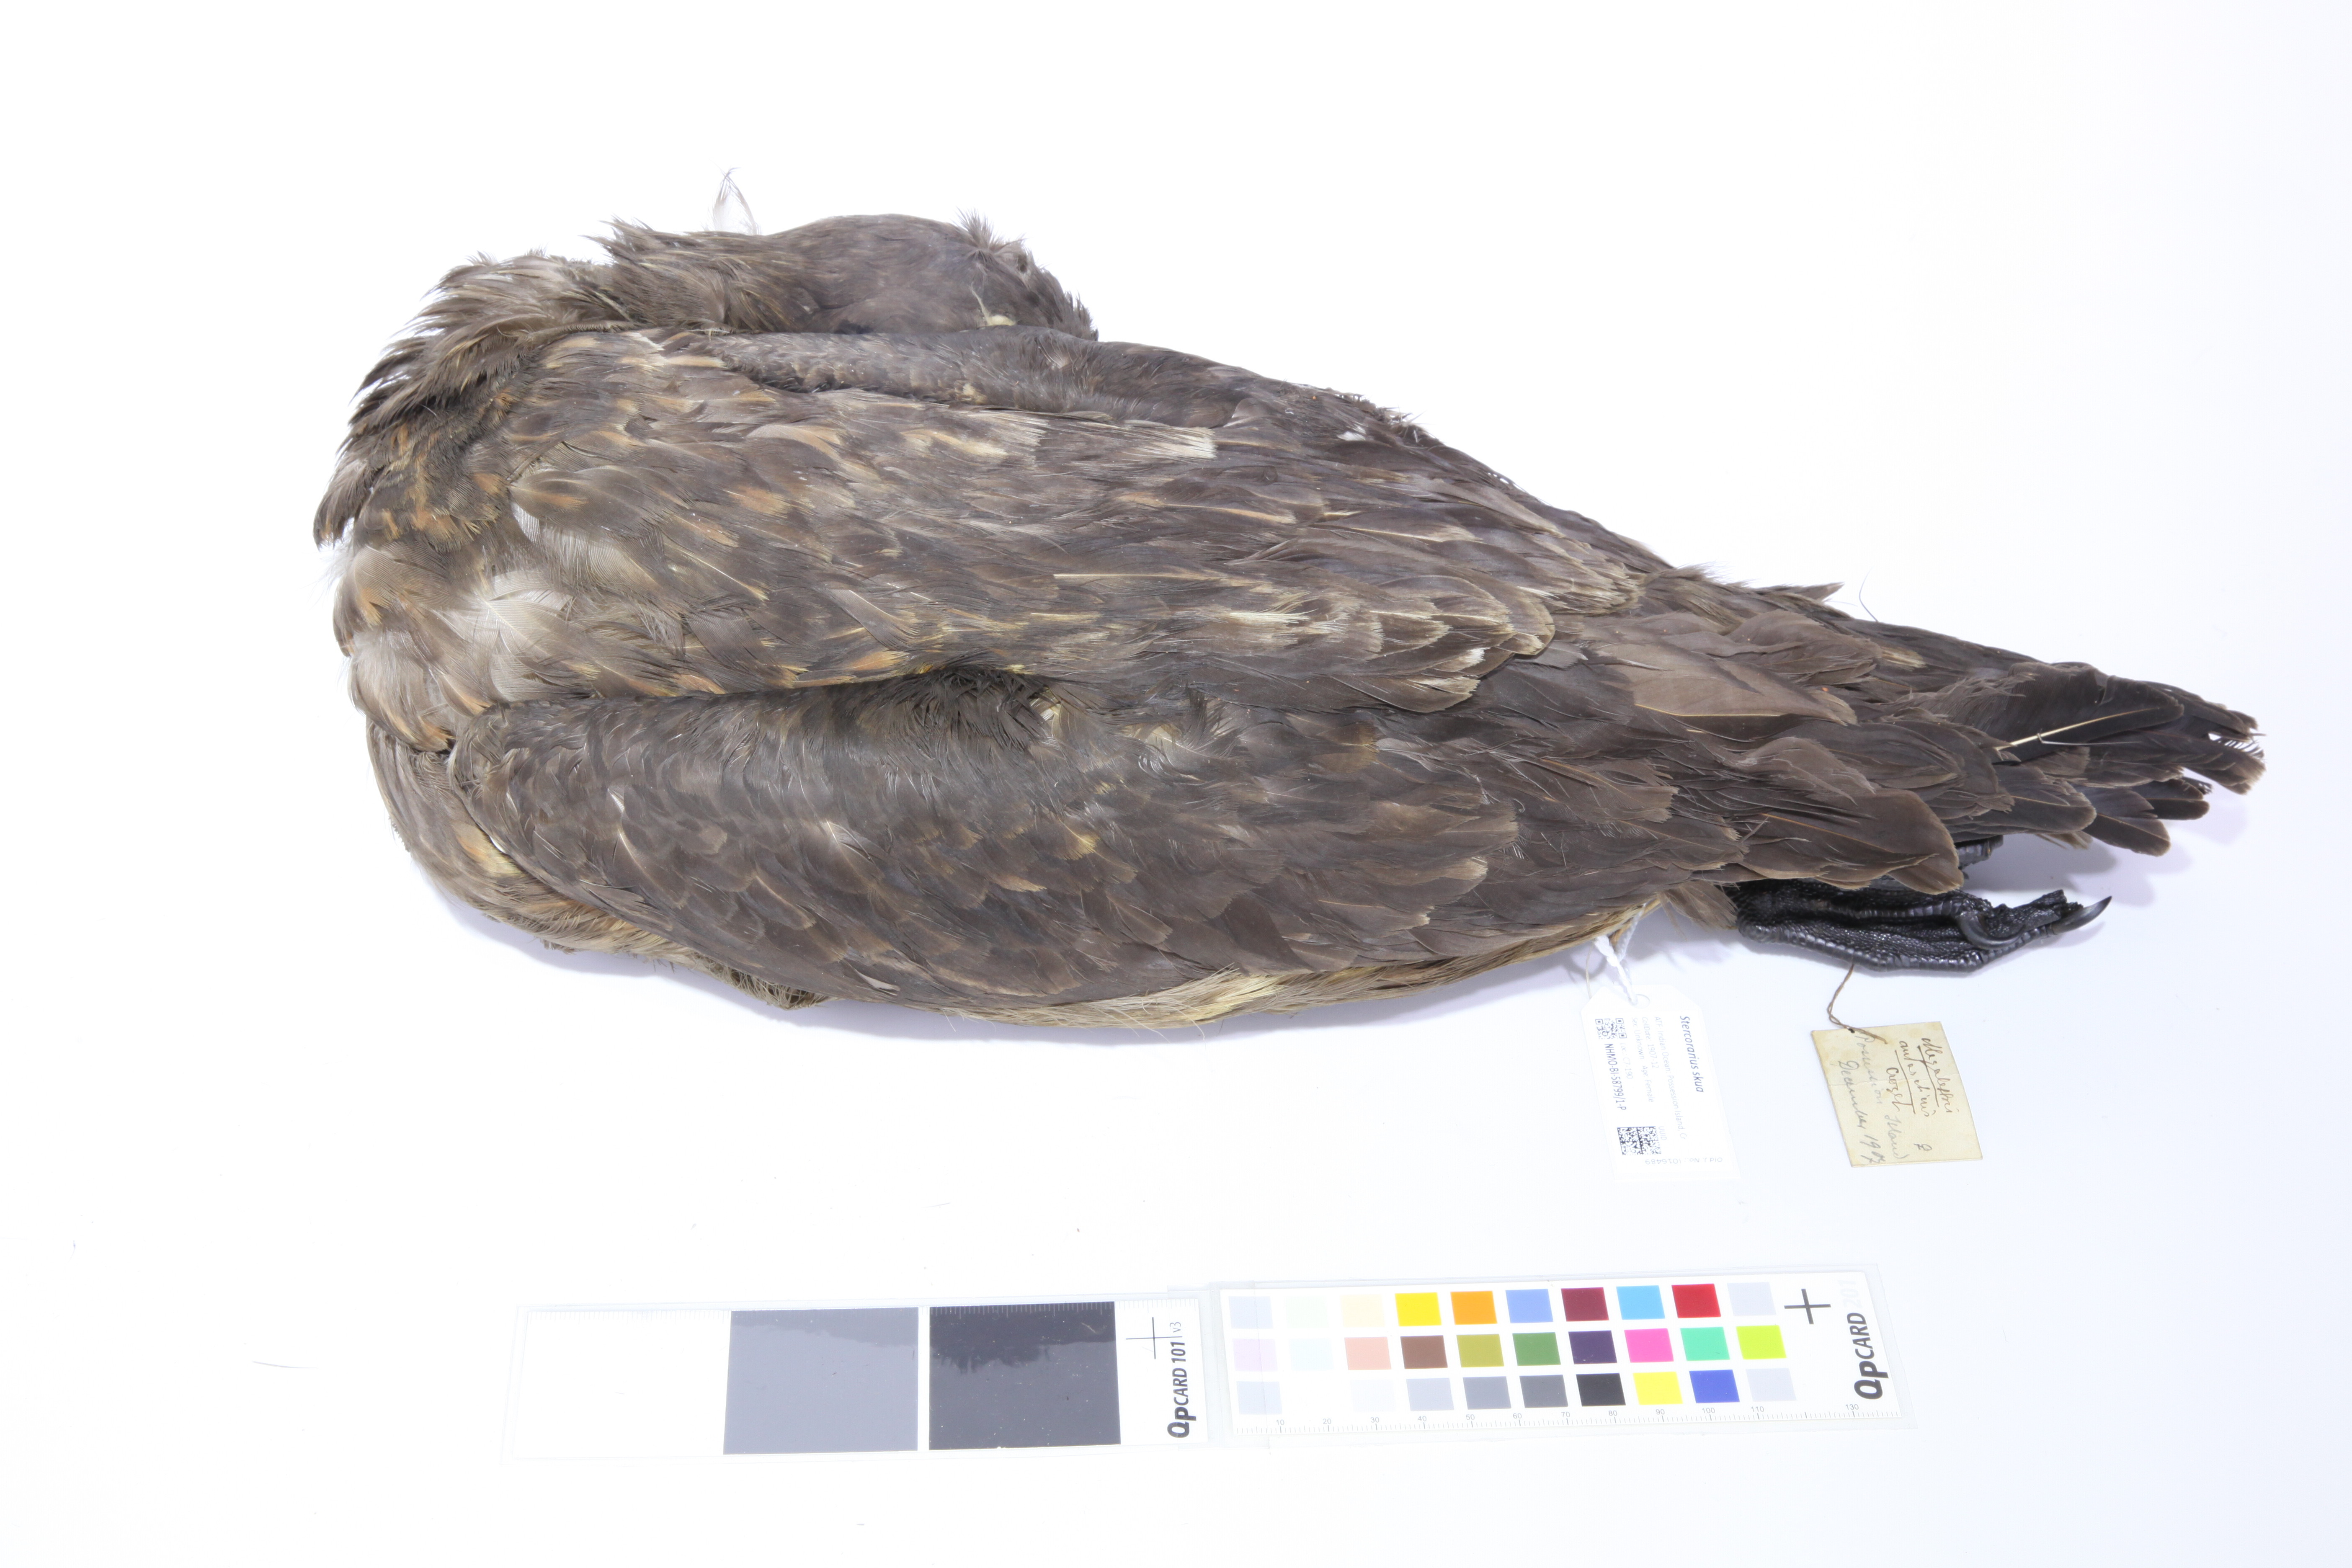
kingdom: Animalia
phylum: Chordata
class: Aves
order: Charadriiformes
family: Stercorariidae
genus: Stercorarius
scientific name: Stercorarius antarcticus
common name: Brown skua
